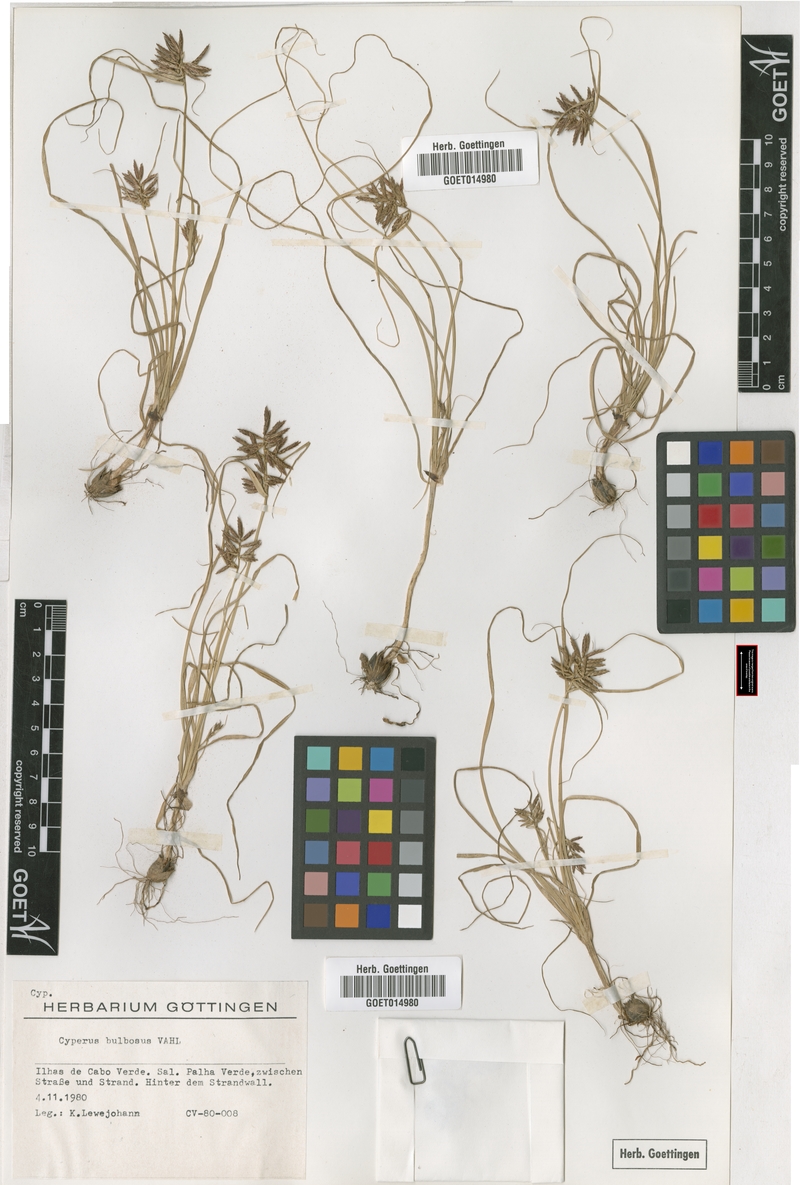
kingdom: Plantae
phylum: Tracheophyta
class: Liliopsida
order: Poales
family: Cyperaceae
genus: Cyperus
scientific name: Cyperus bulbosus
